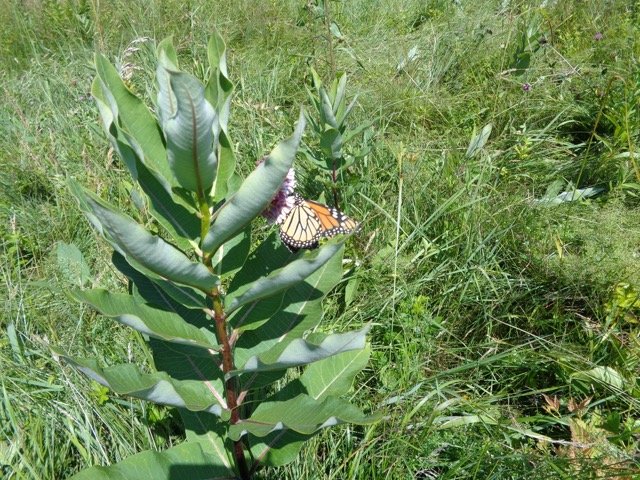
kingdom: Animalia
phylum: Arthropoda
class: Insecta
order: Lepidoptera
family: Nymphalidae
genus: Danaus
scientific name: Danaus plexippus
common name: Monarch
